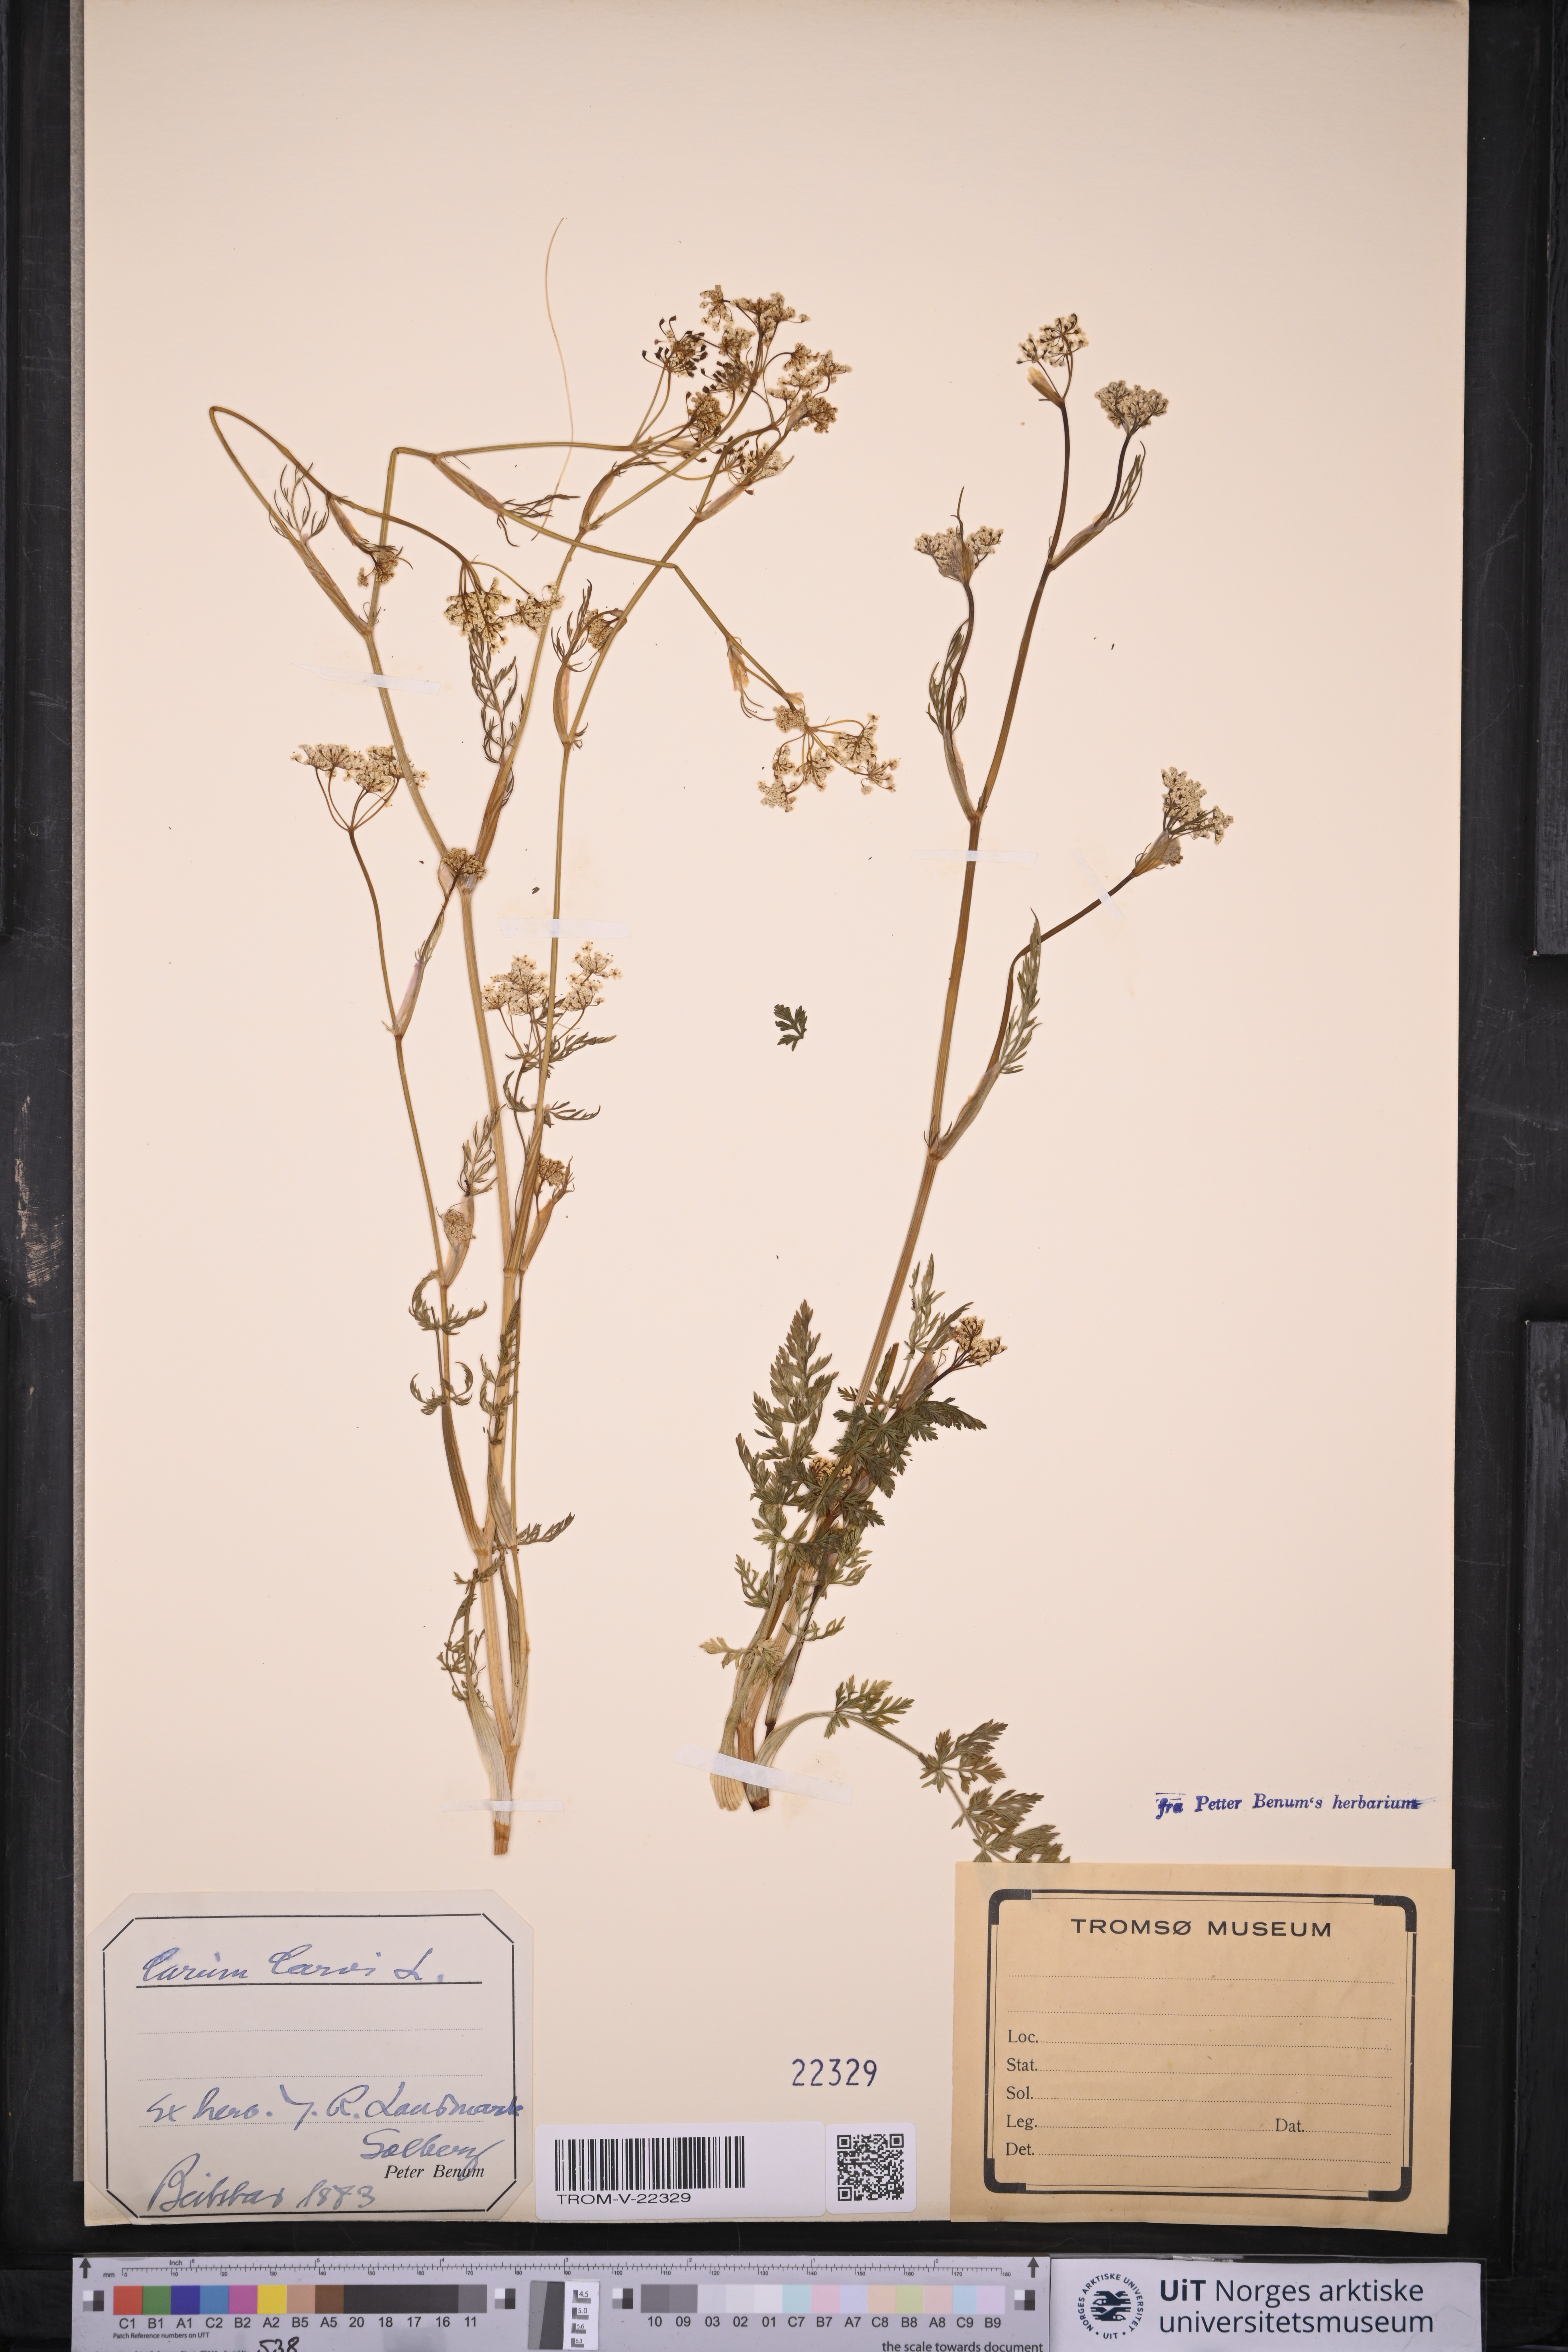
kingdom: Plantae
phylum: Tracheophyta
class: Magnoliopsida
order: Apiales
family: Apiaceae
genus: Carum
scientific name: Carum carvi
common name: Caraway
